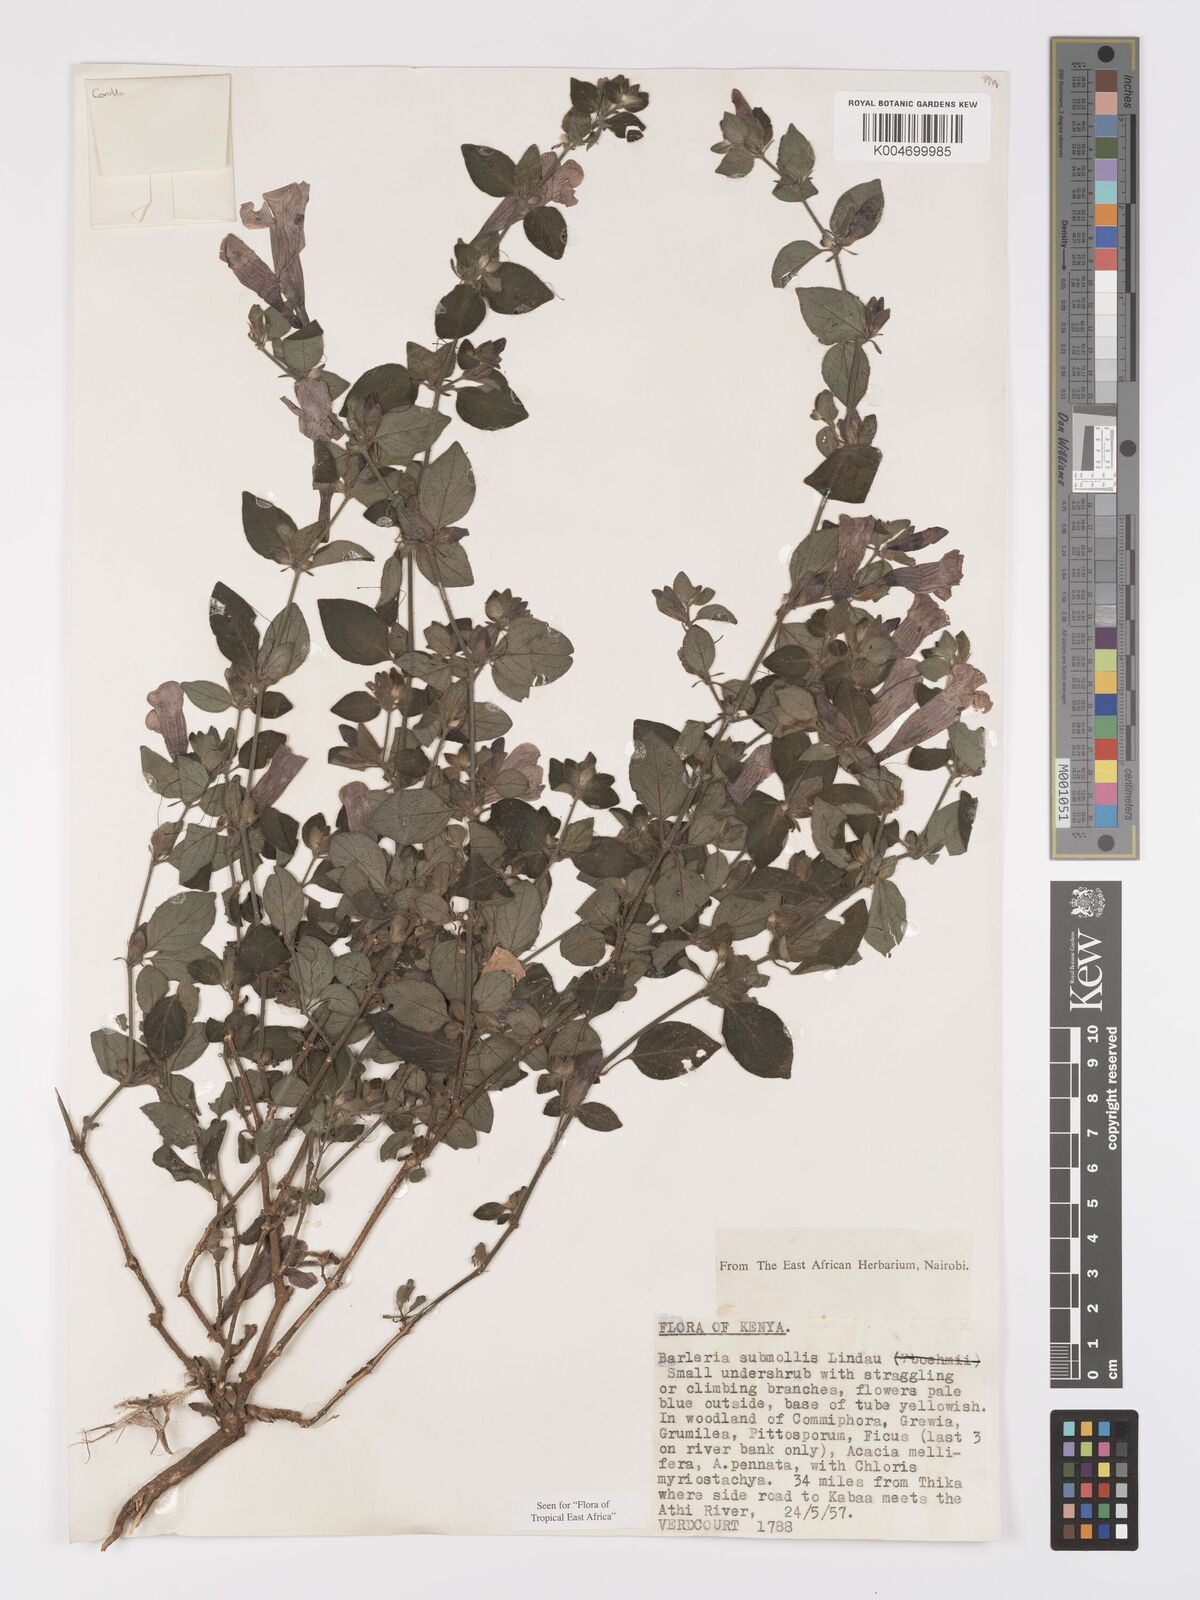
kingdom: Plantae
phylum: Tracheophyta
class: Magnoliopsida
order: Lamiales
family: Acanthaceae
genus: Barleria
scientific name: Barleria submollis
